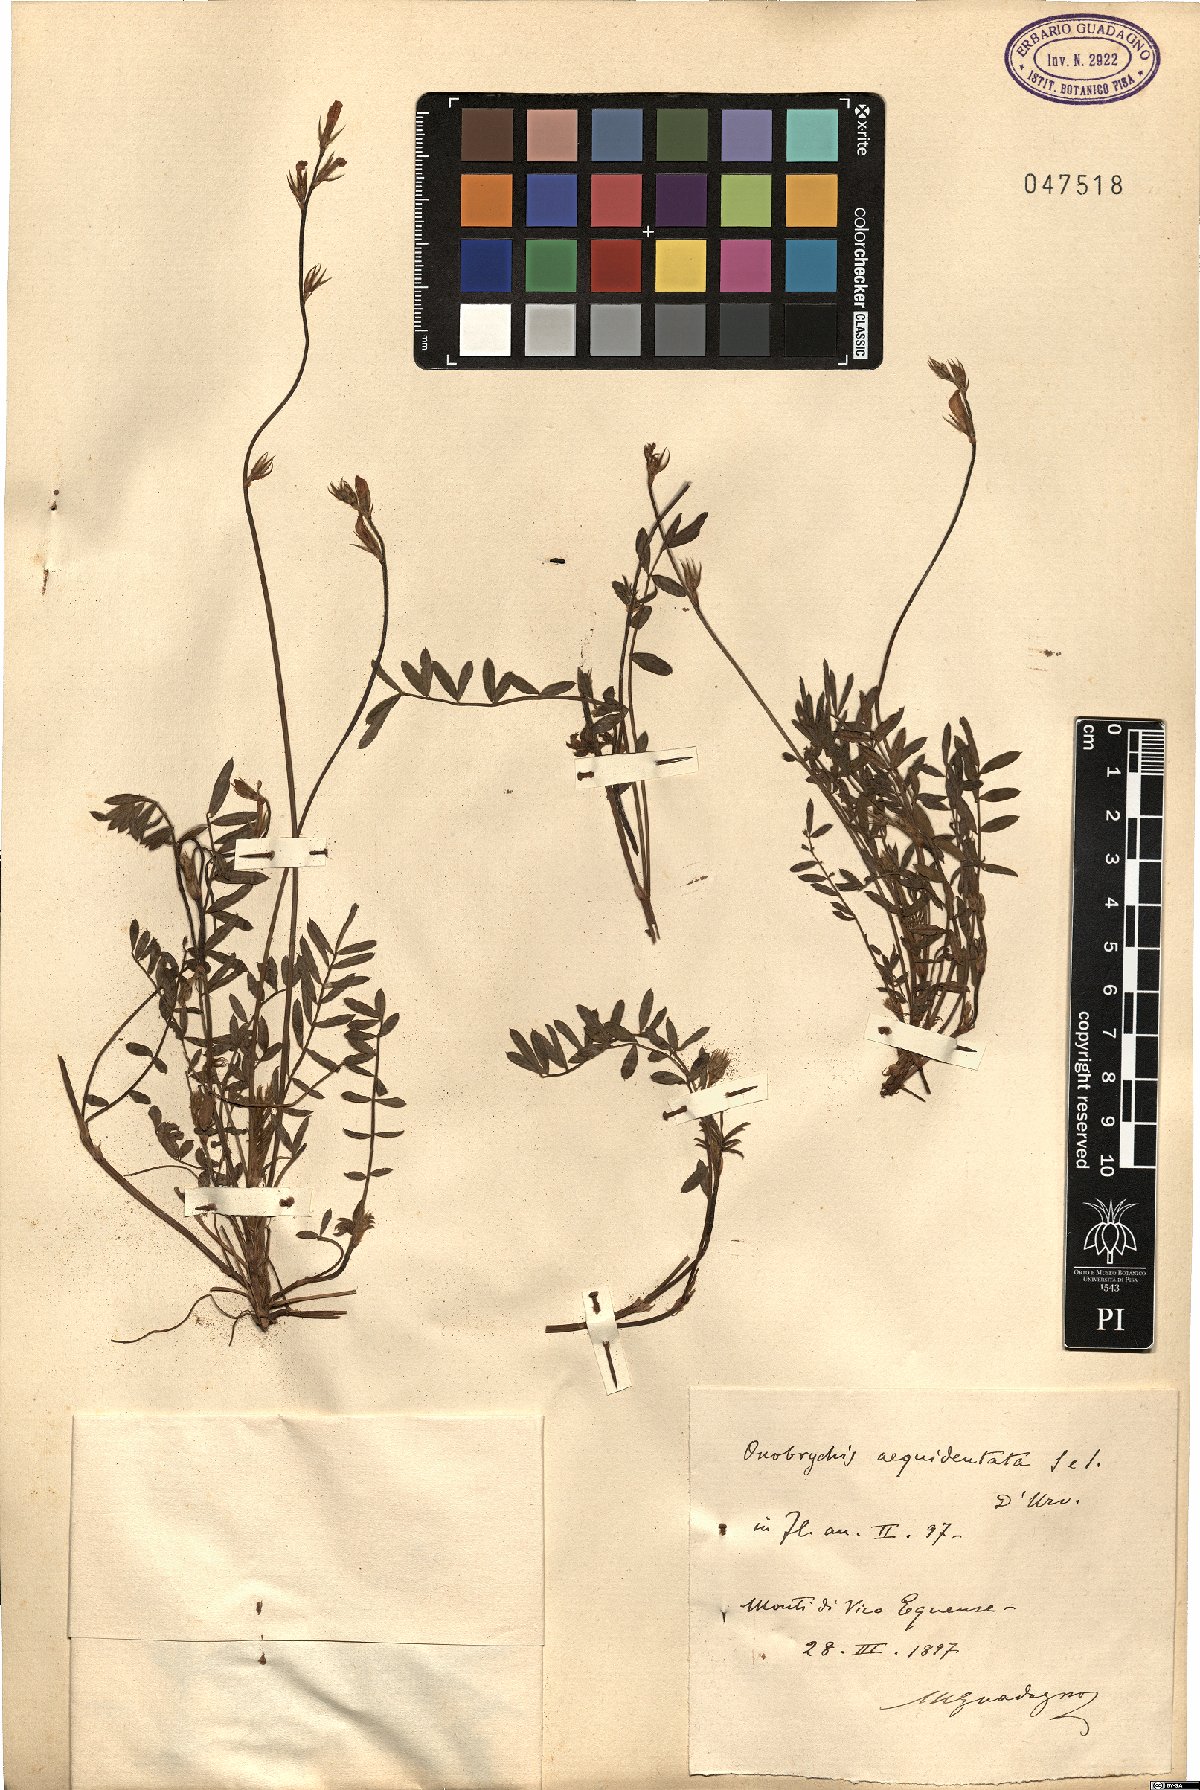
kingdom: Plantae
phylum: Tracheophyta
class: Magnoliopsida
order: Fabales
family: Fabaceae
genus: Onobrychis
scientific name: Onobrychis aequidentata
